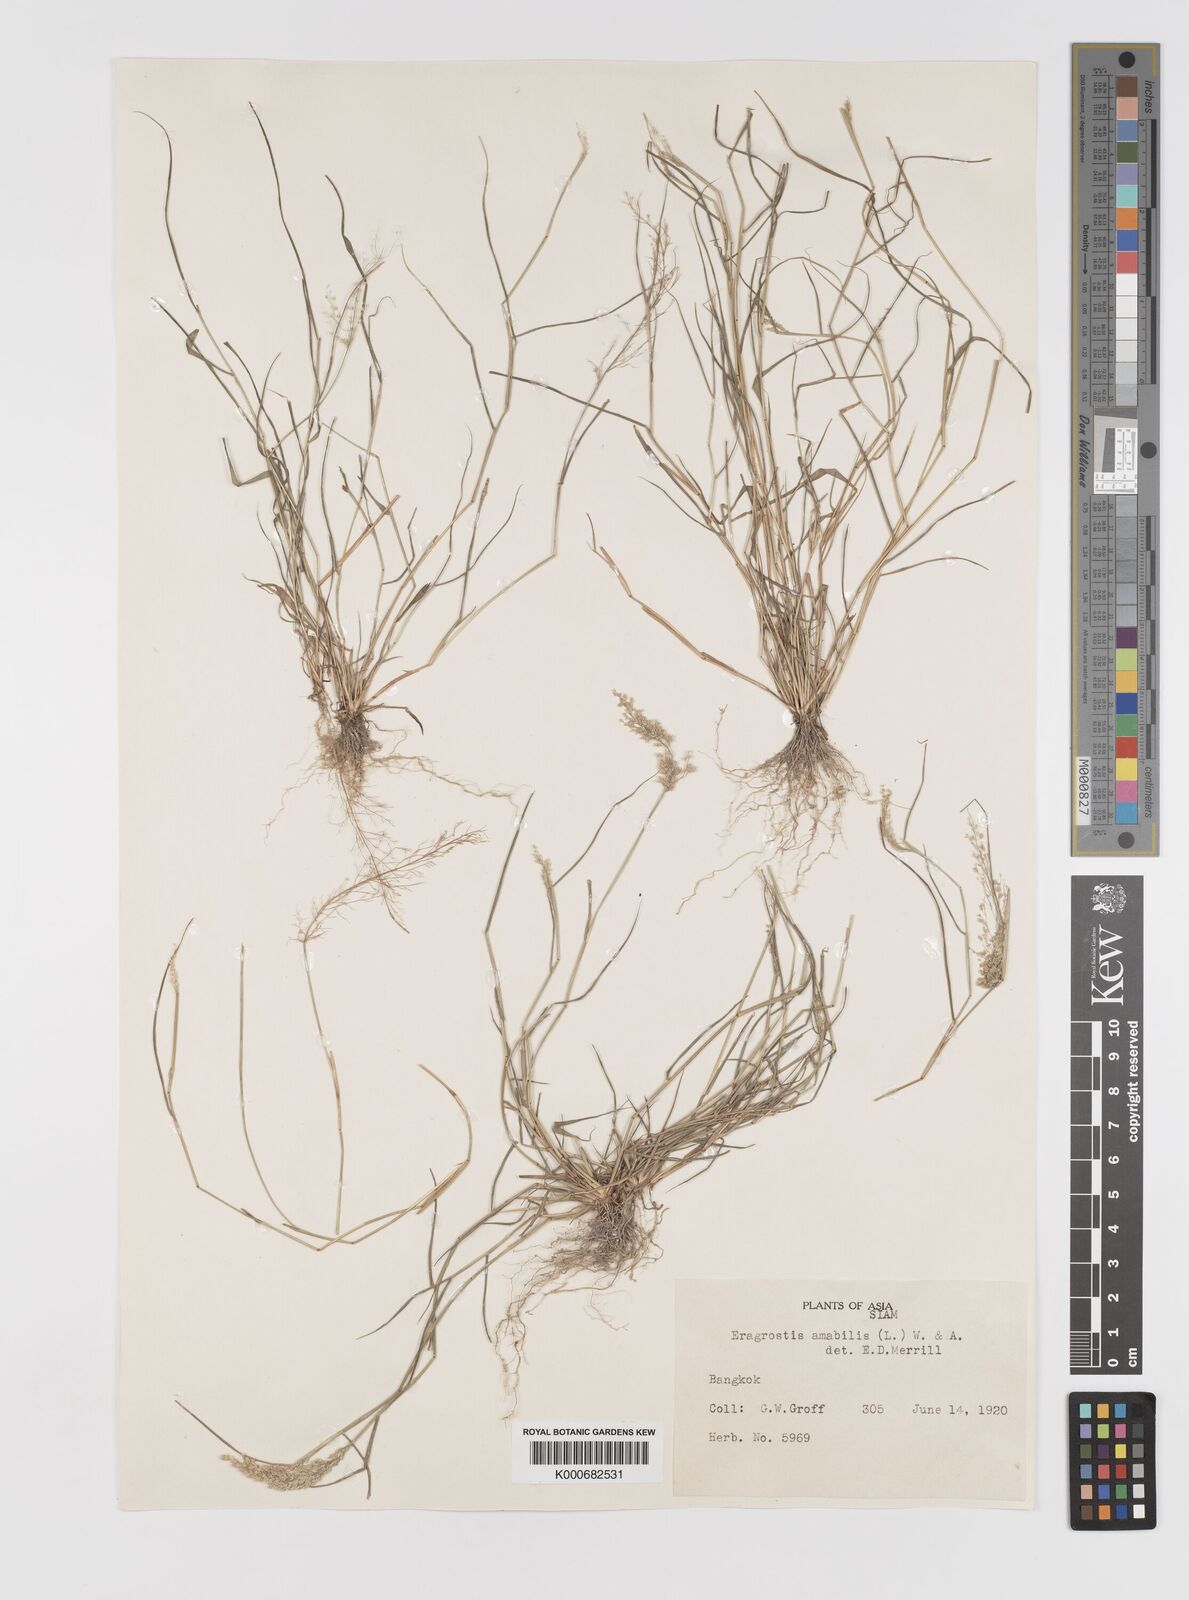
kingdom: Plantae
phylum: Tracheophyta
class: Liliopsida
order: Poales
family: Poaceae
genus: Eragrostis
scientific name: Eragrostis tenella
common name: Japanese lovegrass
